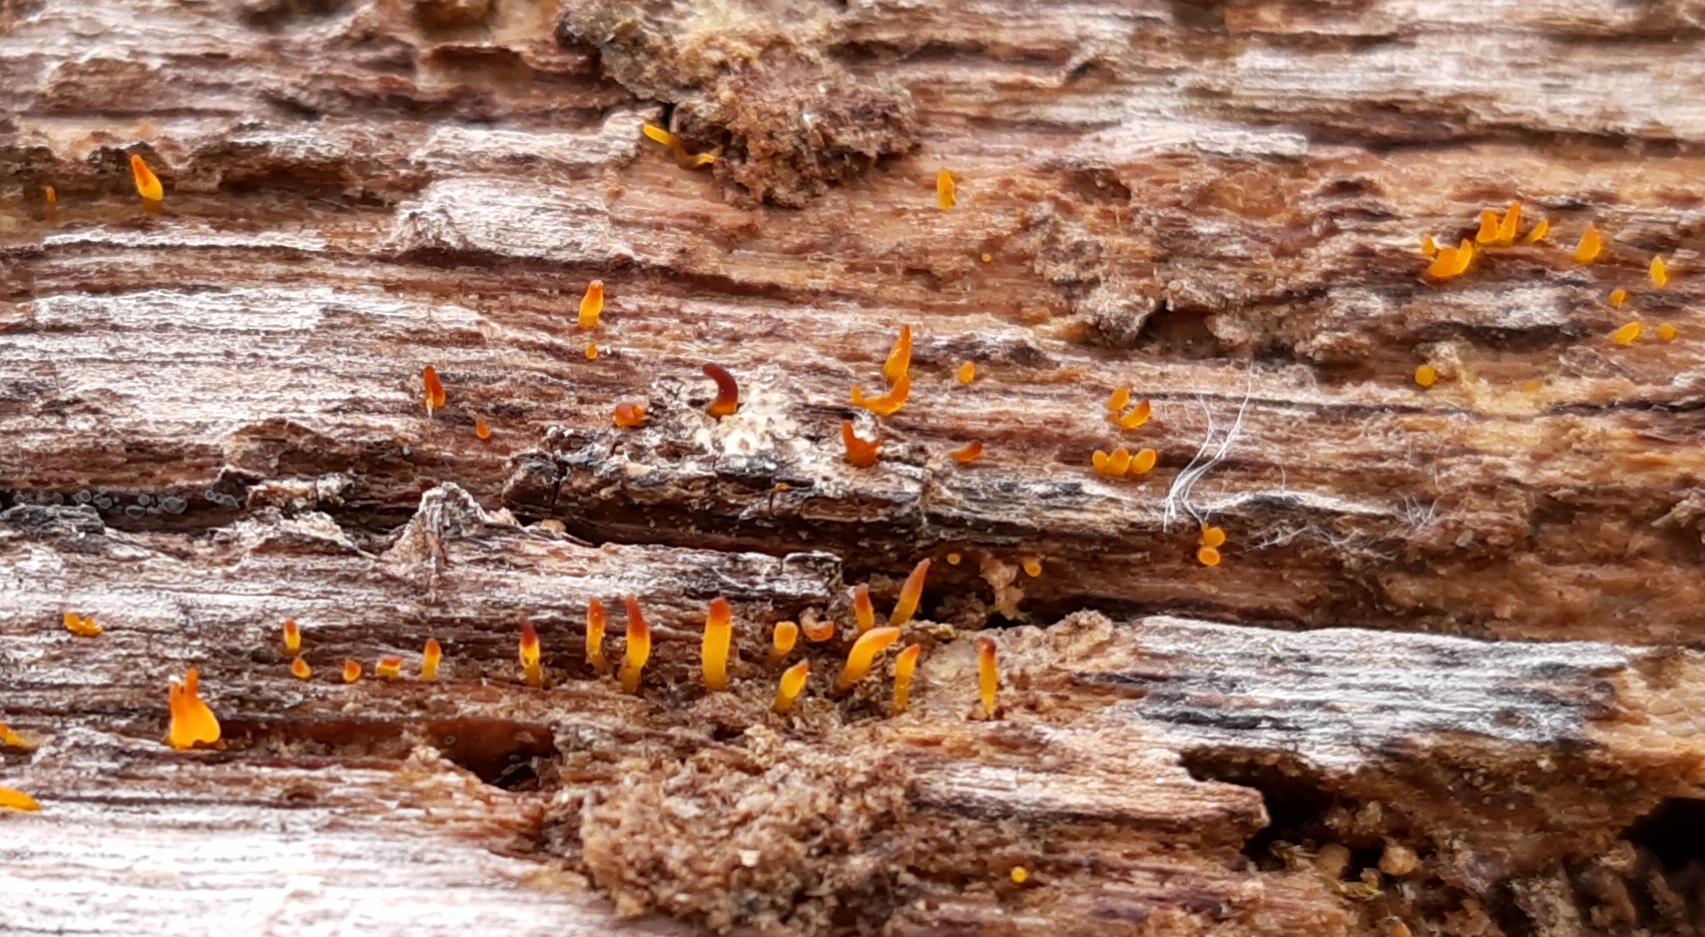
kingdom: Fungi
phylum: Basidiomycota
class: Dacrymycetes
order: Dacrymycetales
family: Dacrymycetaceae
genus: Calocera
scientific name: Calocera cornea
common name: liden guldgaffel
